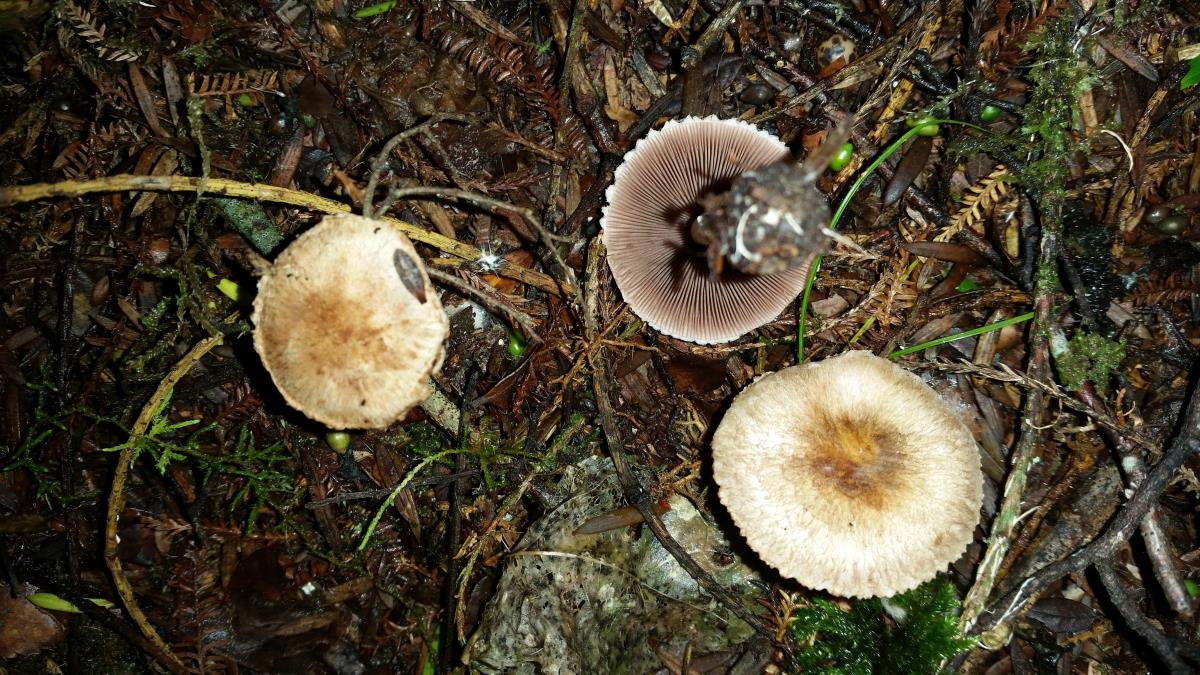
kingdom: Fungi
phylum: Basidiomycota
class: Agaricomycetes
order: Agaricales
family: Agaricaceae
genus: Agaricus
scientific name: Agaricus oligocystis
